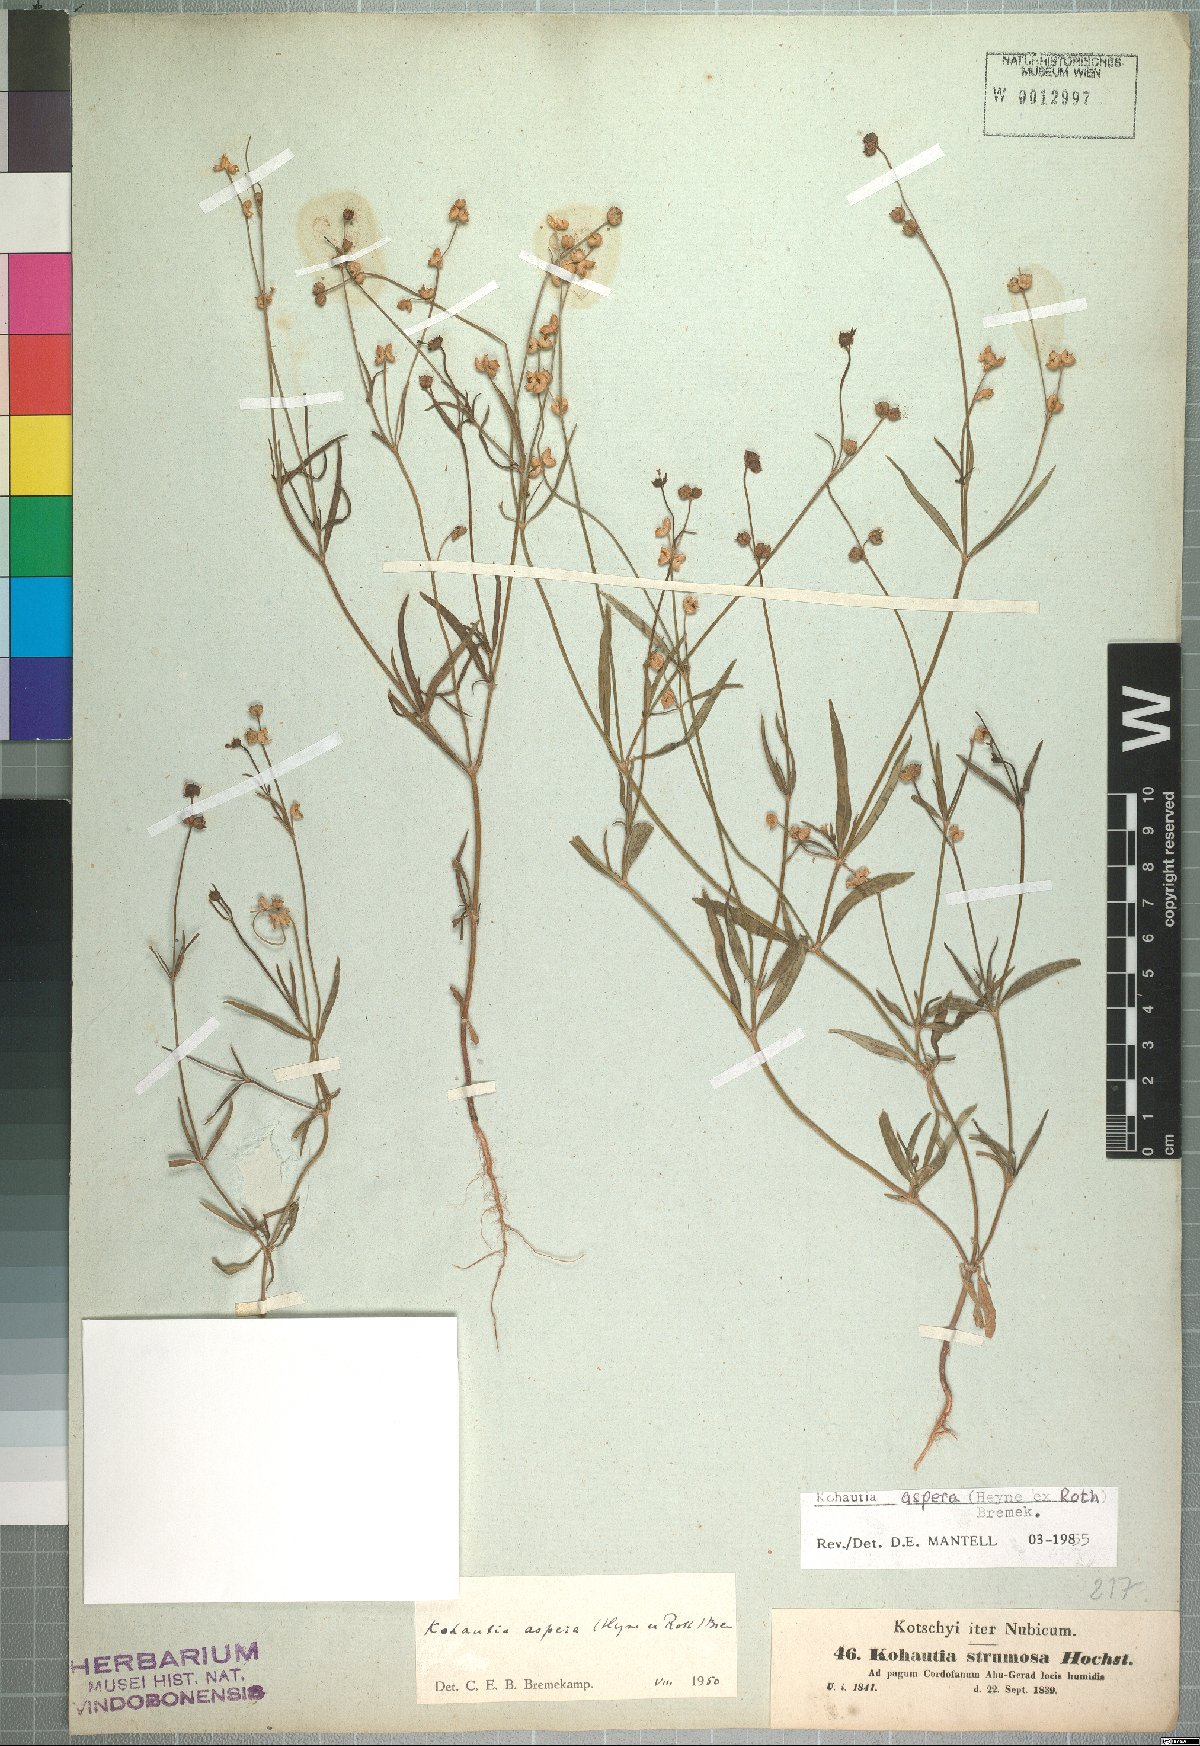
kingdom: Plantae
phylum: Tracheophyta
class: Magnoliopsida
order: Gentianales
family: Rubiaceae
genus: Kohautia
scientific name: Kohautia aspera
